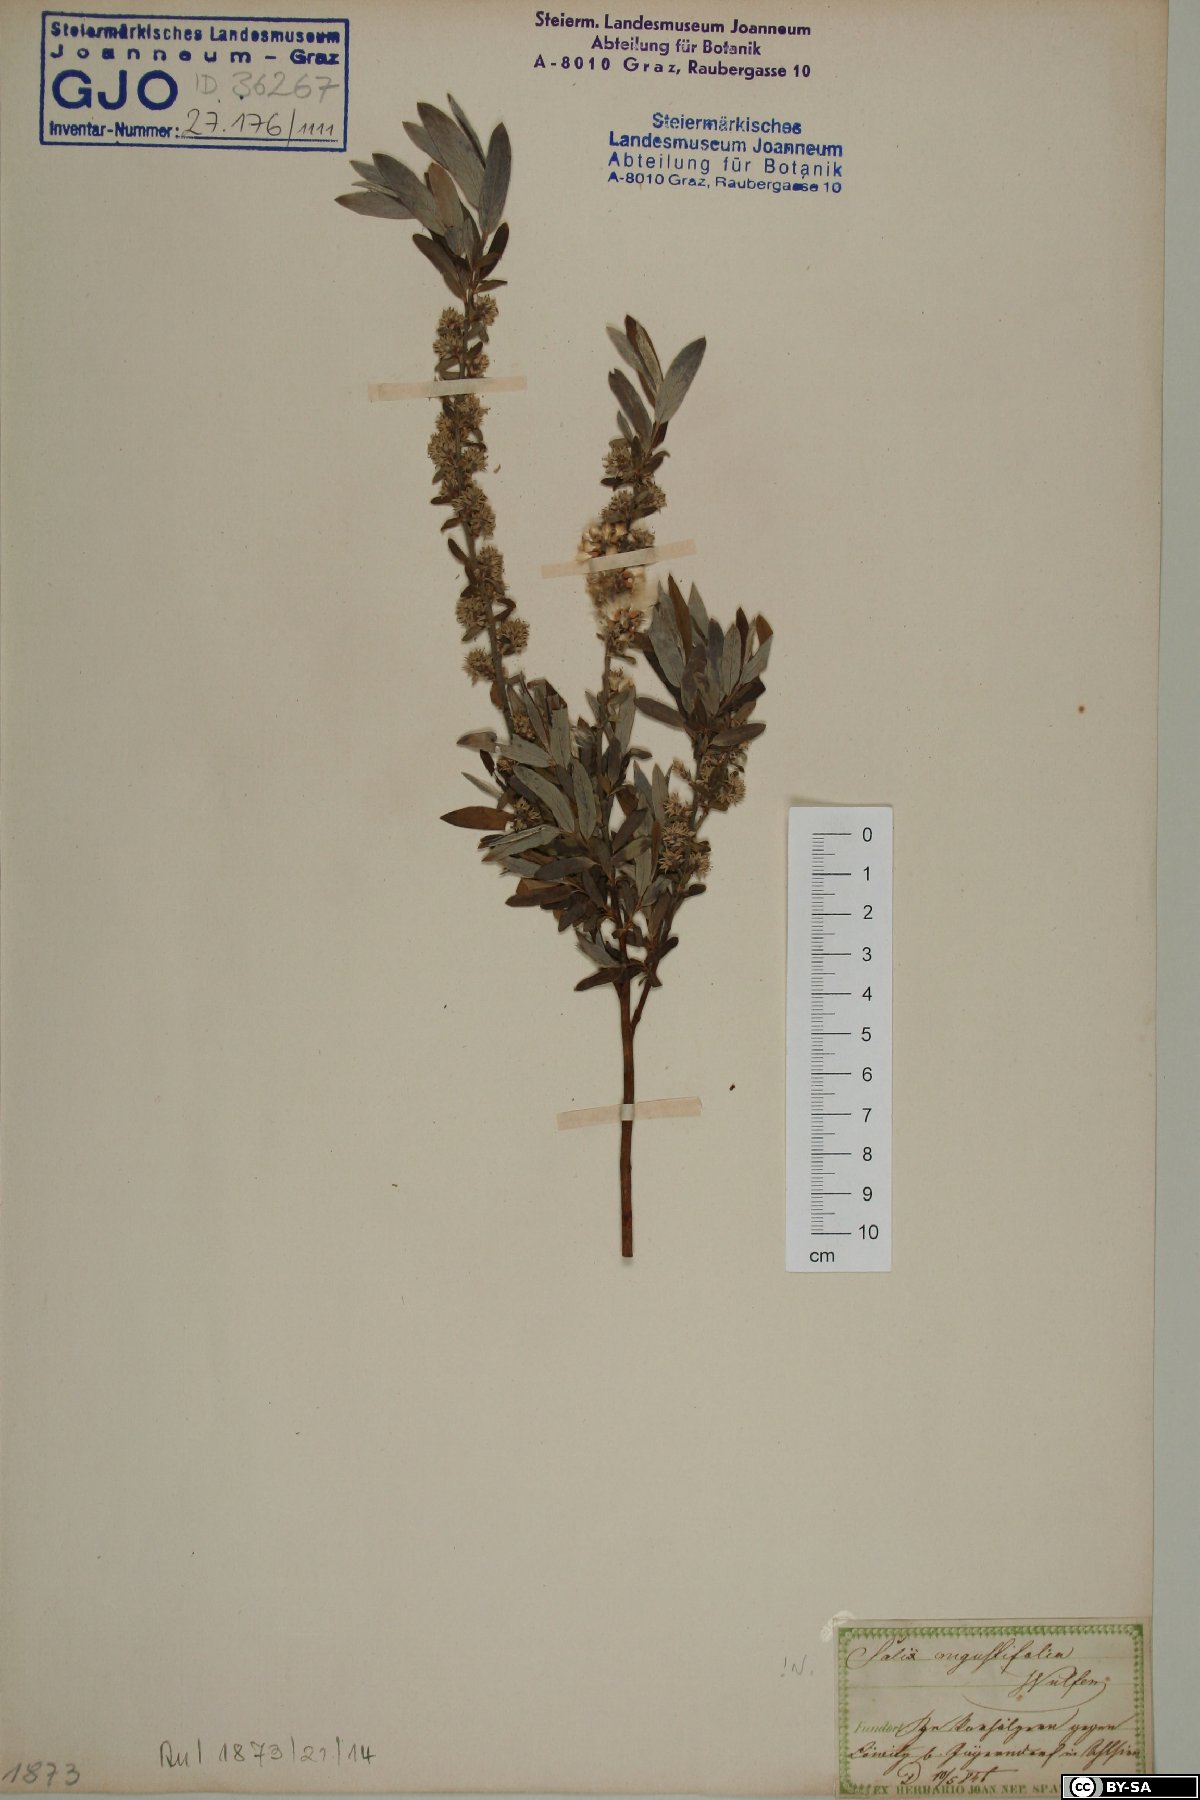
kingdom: Plantae
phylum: Tracheophyta
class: Magnoliopsida
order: Malpighiales
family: Salicaceae
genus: Salix
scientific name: Salix rosmarinifolia
